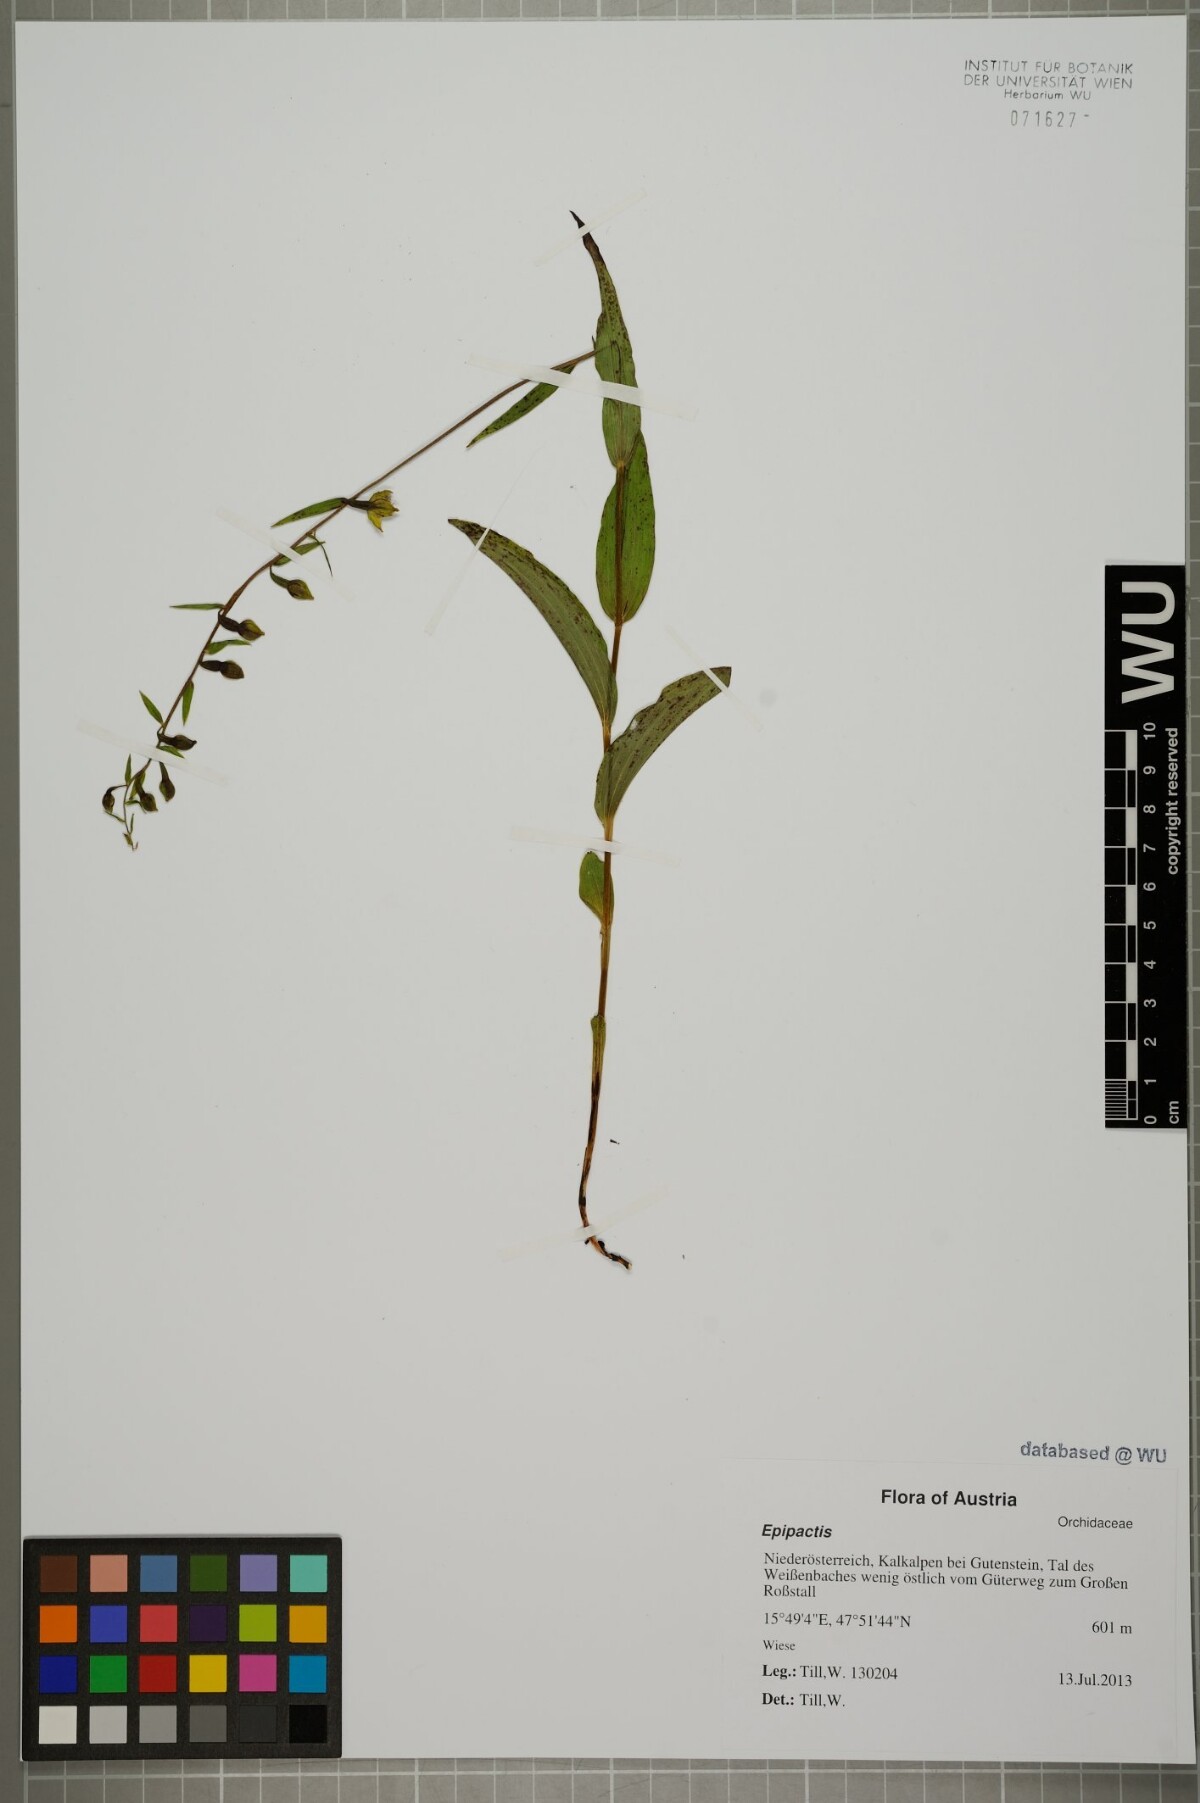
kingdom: Plantae
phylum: Tracheophyta
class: Liliopsida
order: Asparagales
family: Orchidaceae
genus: Epipactis
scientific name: Epipactis
